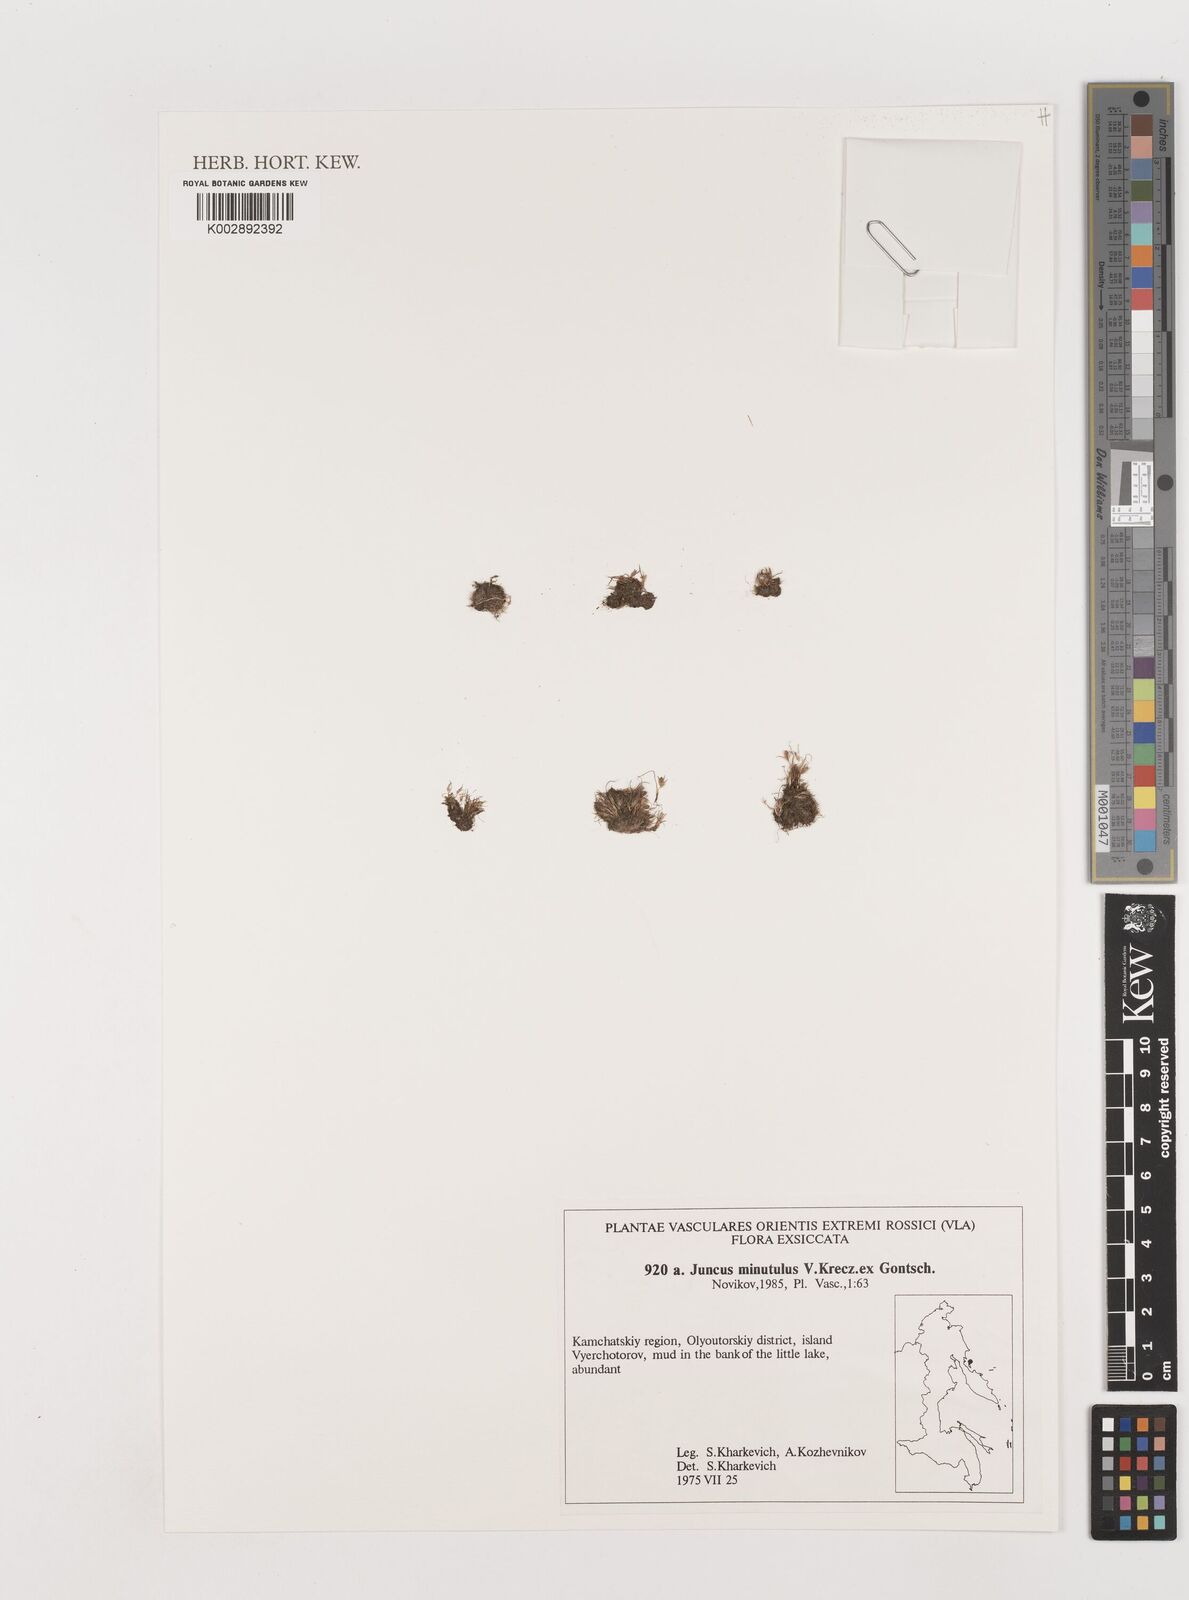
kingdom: Plantae
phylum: Tracheophyta
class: Liliopsida
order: Poales
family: Juncaceae
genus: Juncus
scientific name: Juncus minutulus
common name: Minute rush
